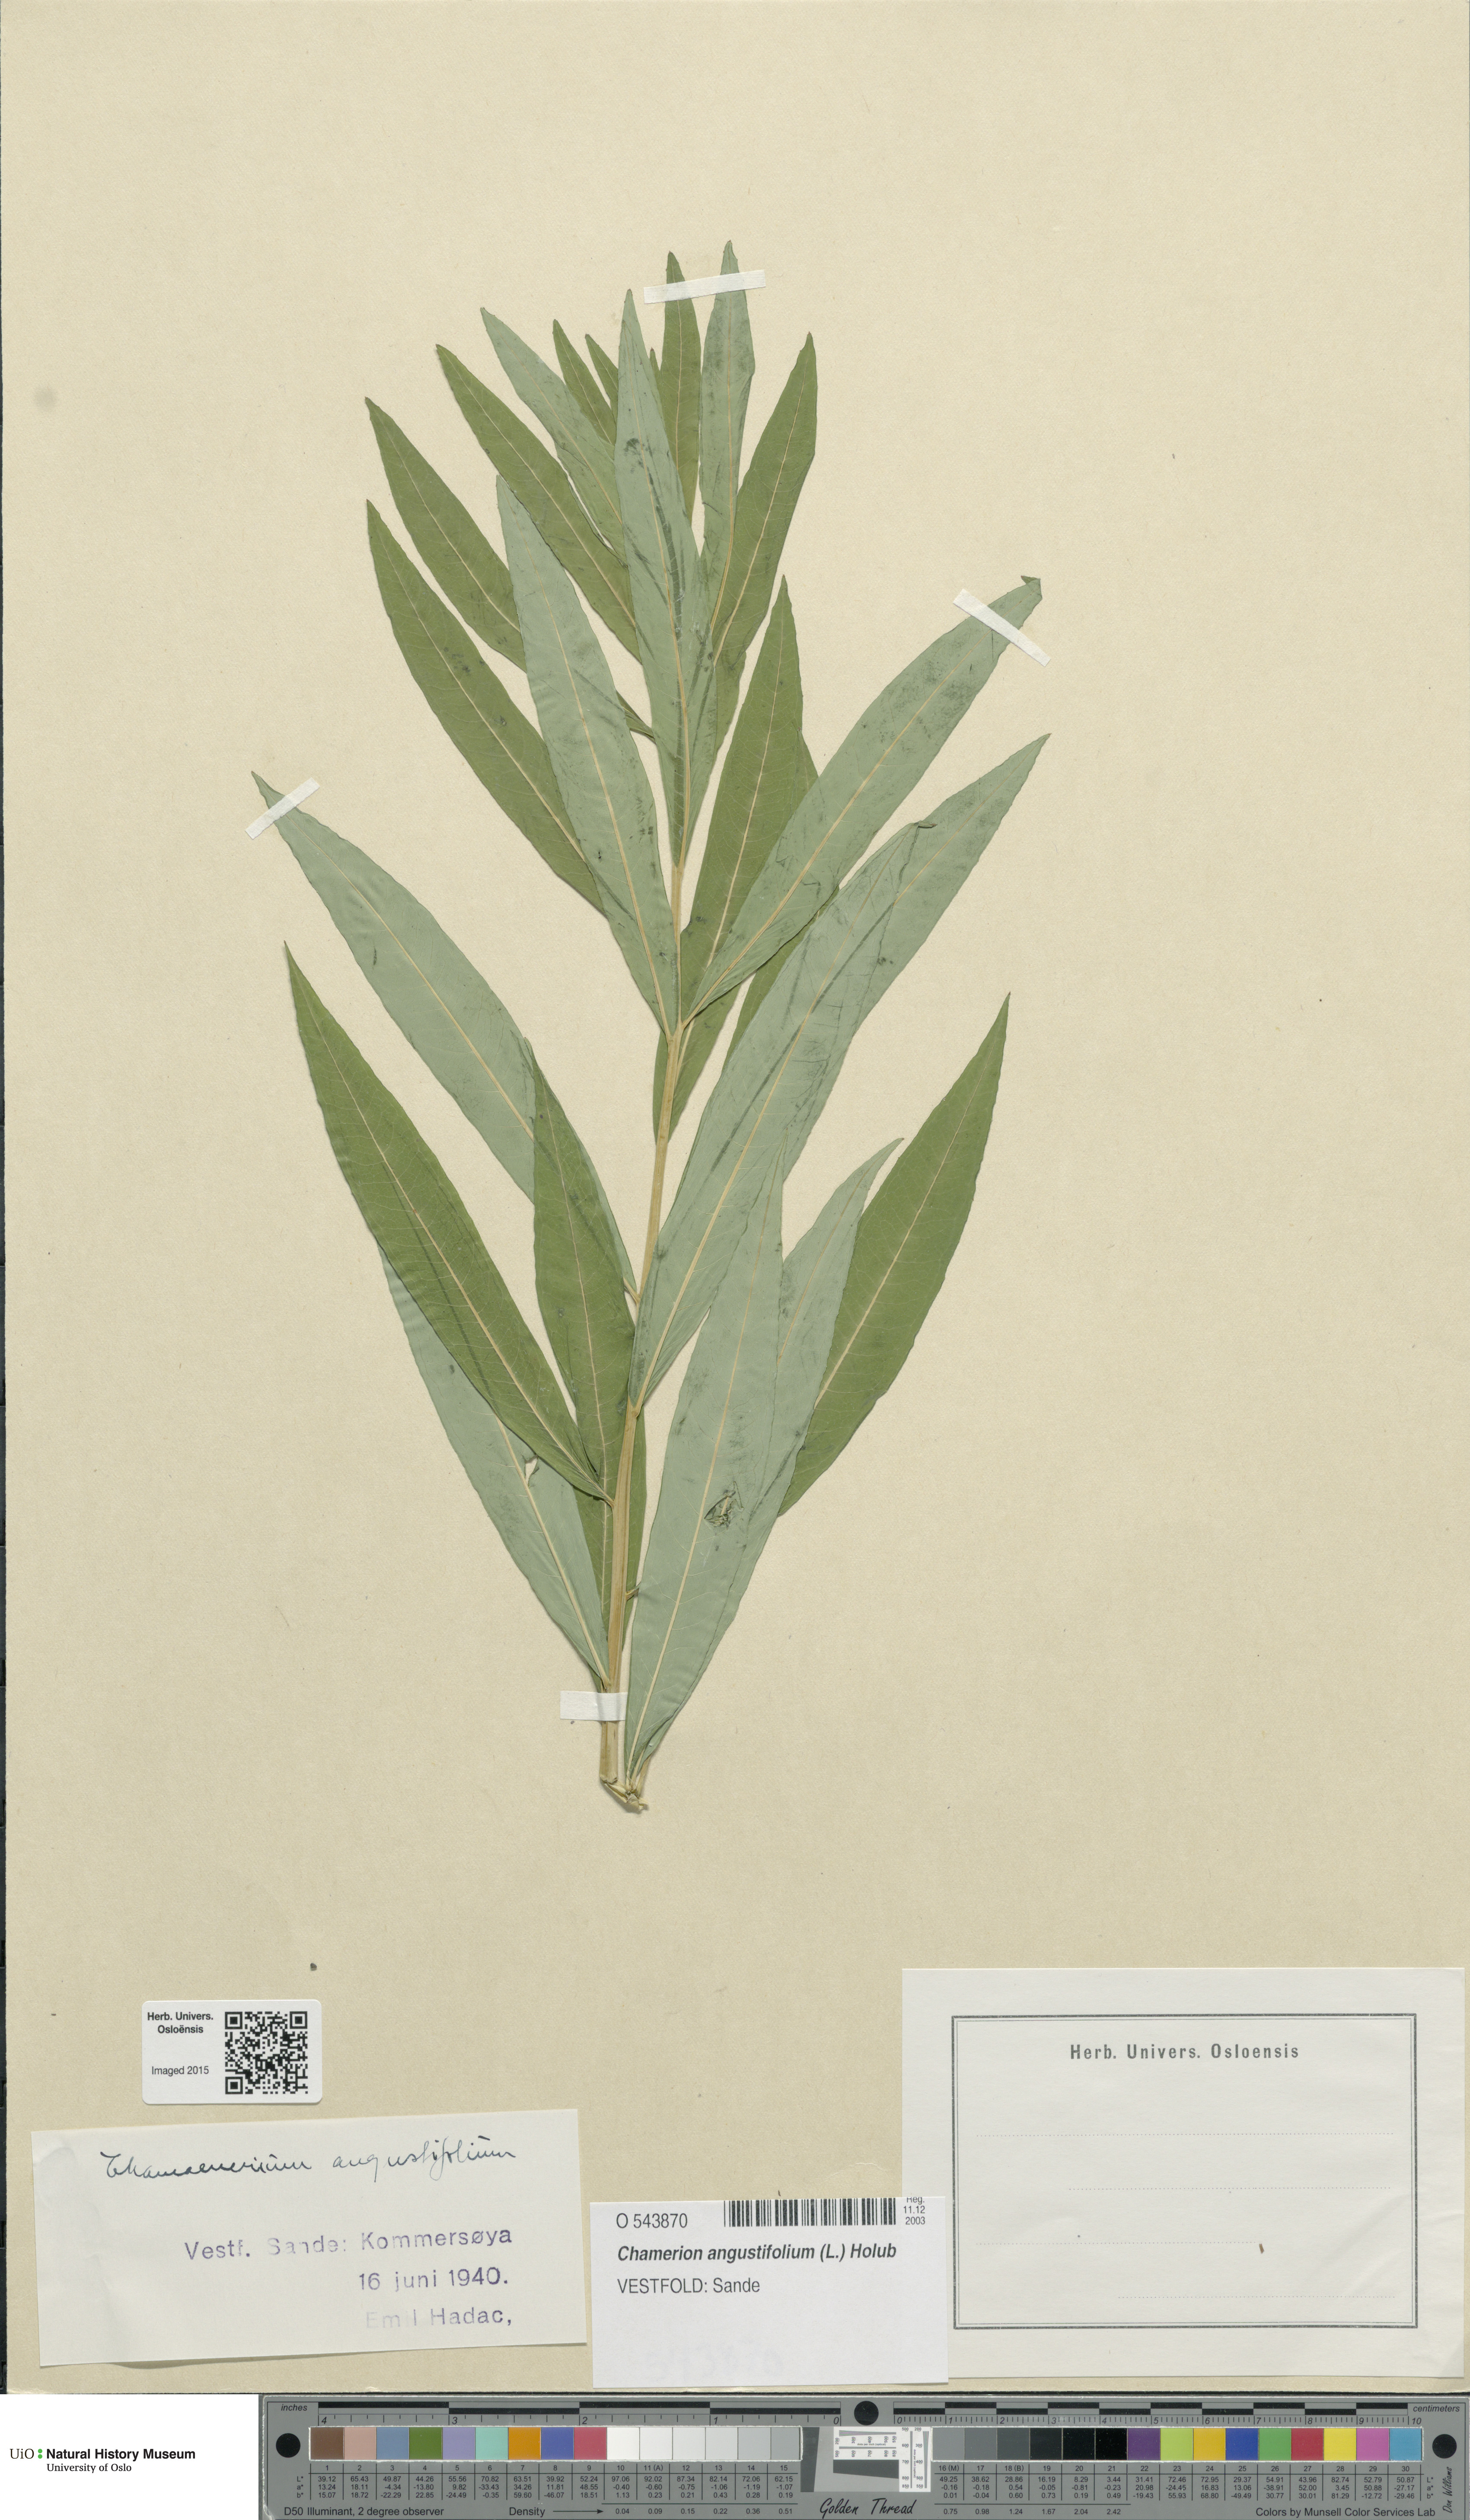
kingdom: Plantae
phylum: Tracheophyta
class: Magnoliopsida
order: Myrtales
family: Onagraceae
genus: Chamaenerion
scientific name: Chamaenerion angustifolium
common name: Fireweed
